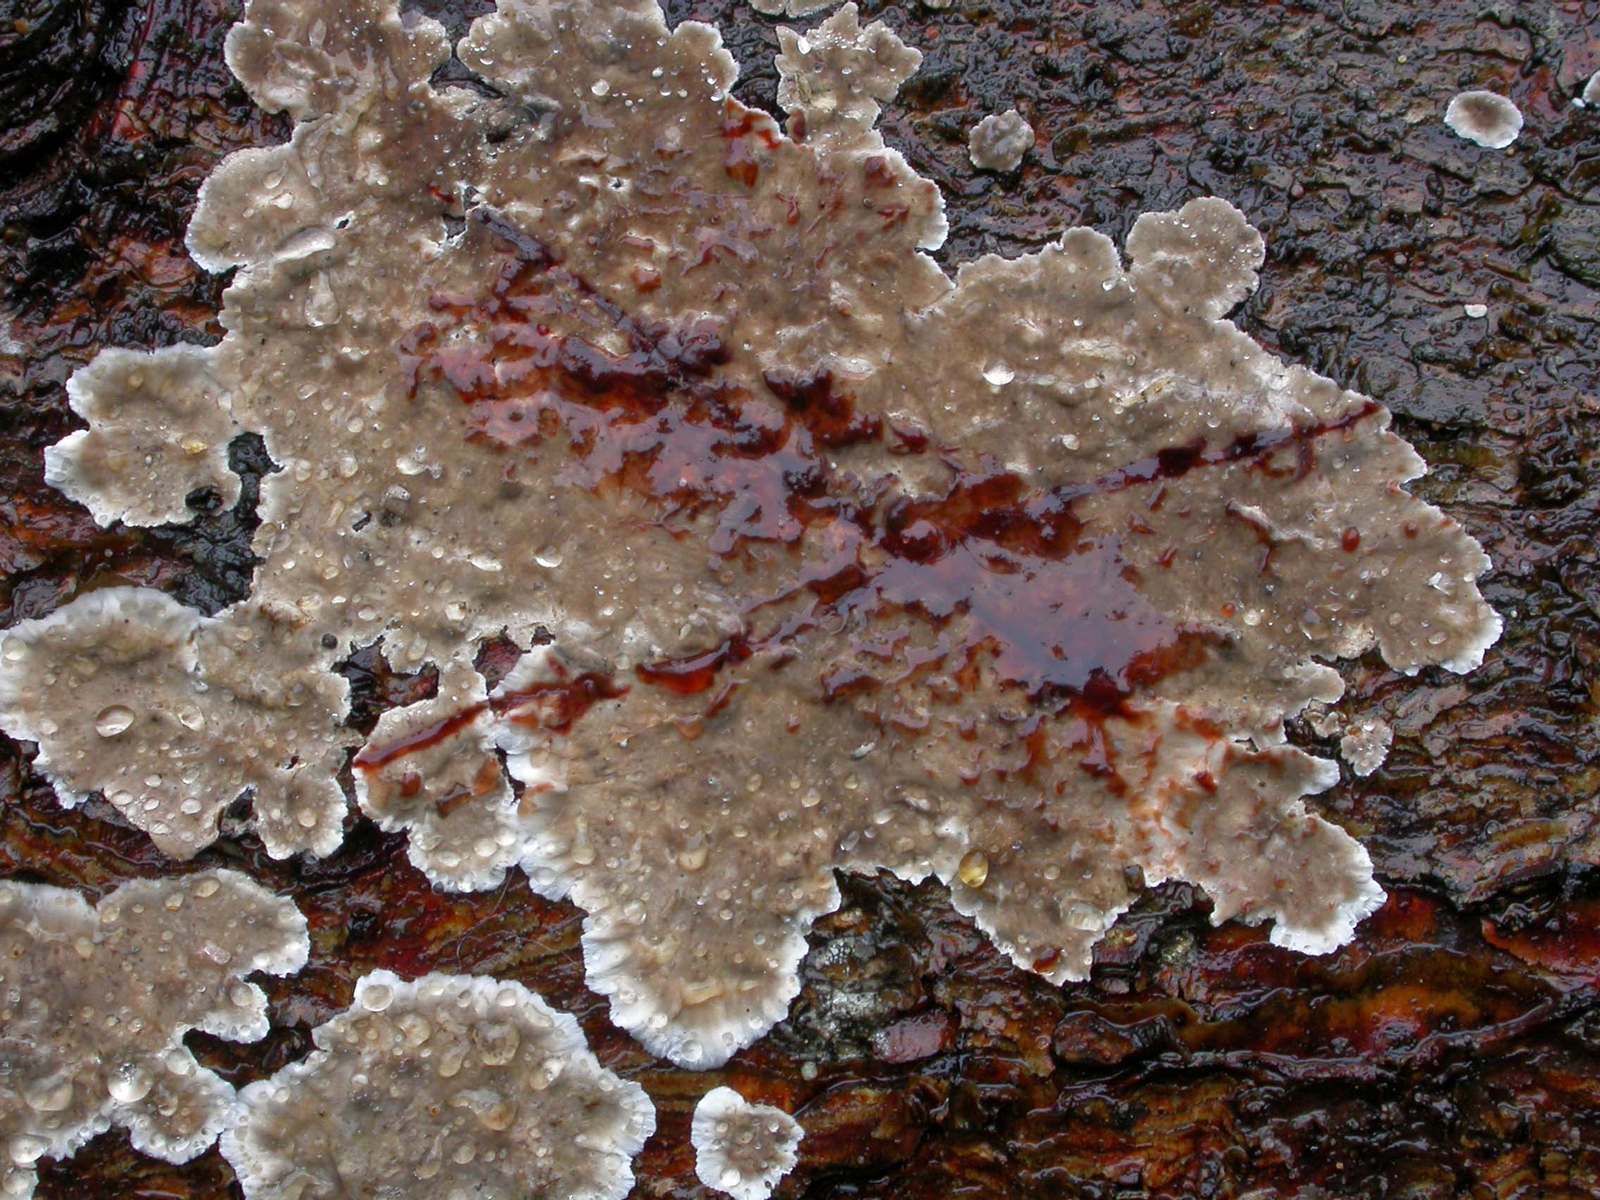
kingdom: Fungi
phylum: Basidiomycota
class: Agaricomycetes
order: Russulales
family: Stereaceae
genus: Stereum
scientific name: Stereum sanguinolentum
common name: blødende lædersvamp
